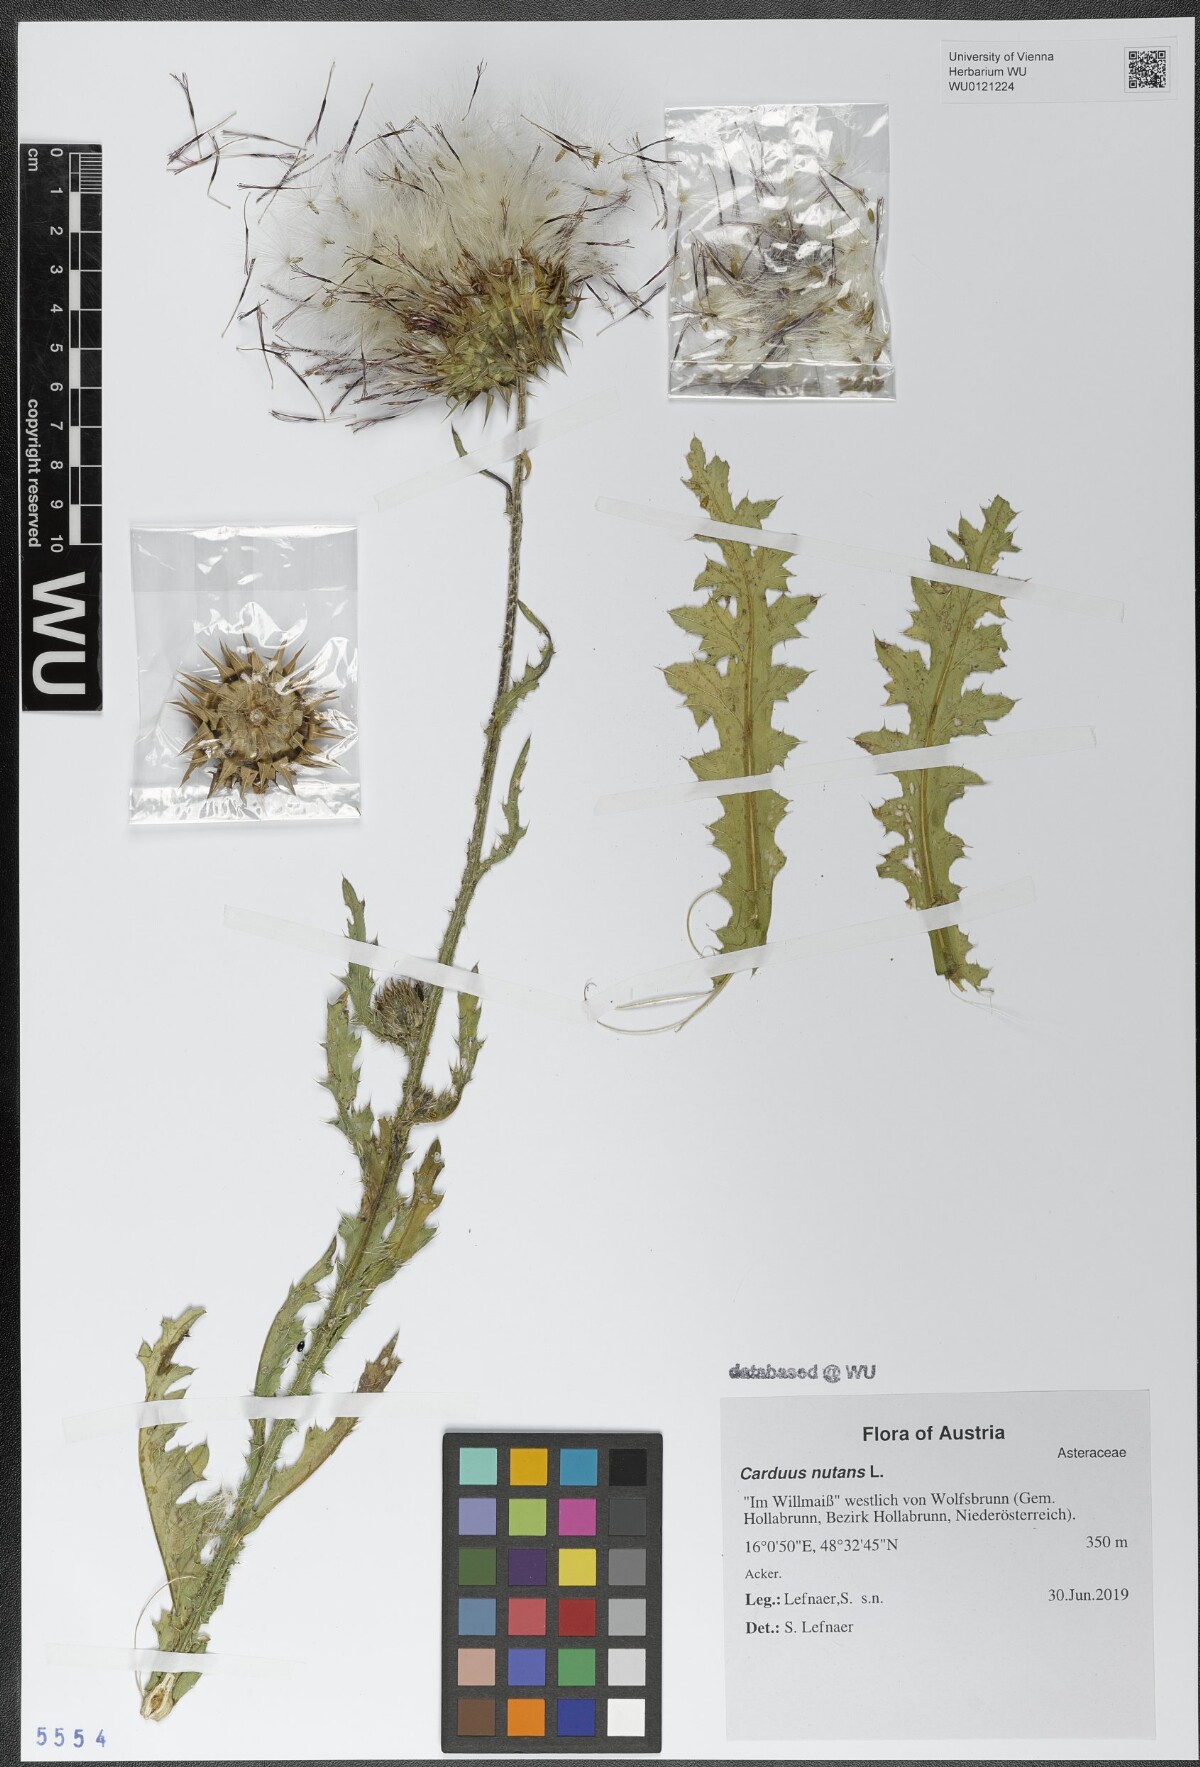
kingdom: Plantae
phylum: Tracheophyta
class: Magnoliopsida
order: Asterales
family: Asteraceae
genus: Carduus
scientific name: Carduus nutans
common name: Musk thistle
